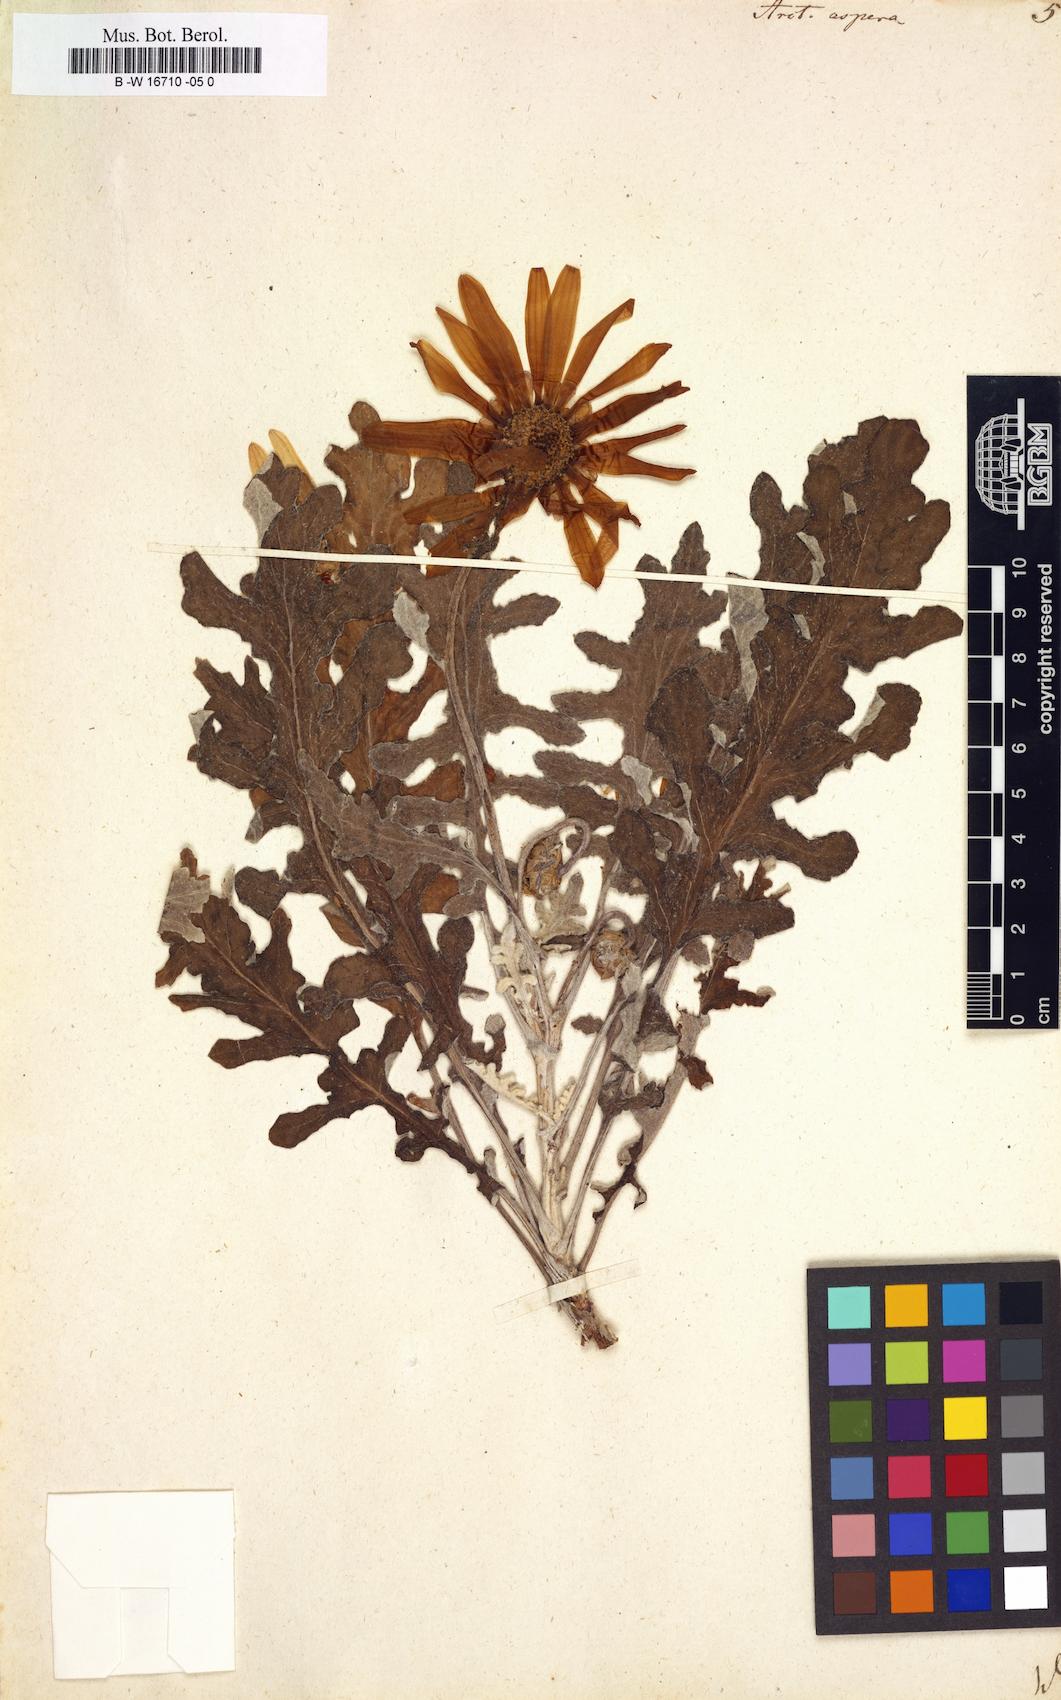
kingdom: Plantae
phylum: Tracheophyta
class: Magnoliopsida
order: Asterales
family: Asteraceae
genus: Arctotis
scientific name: Arctotis aspera
